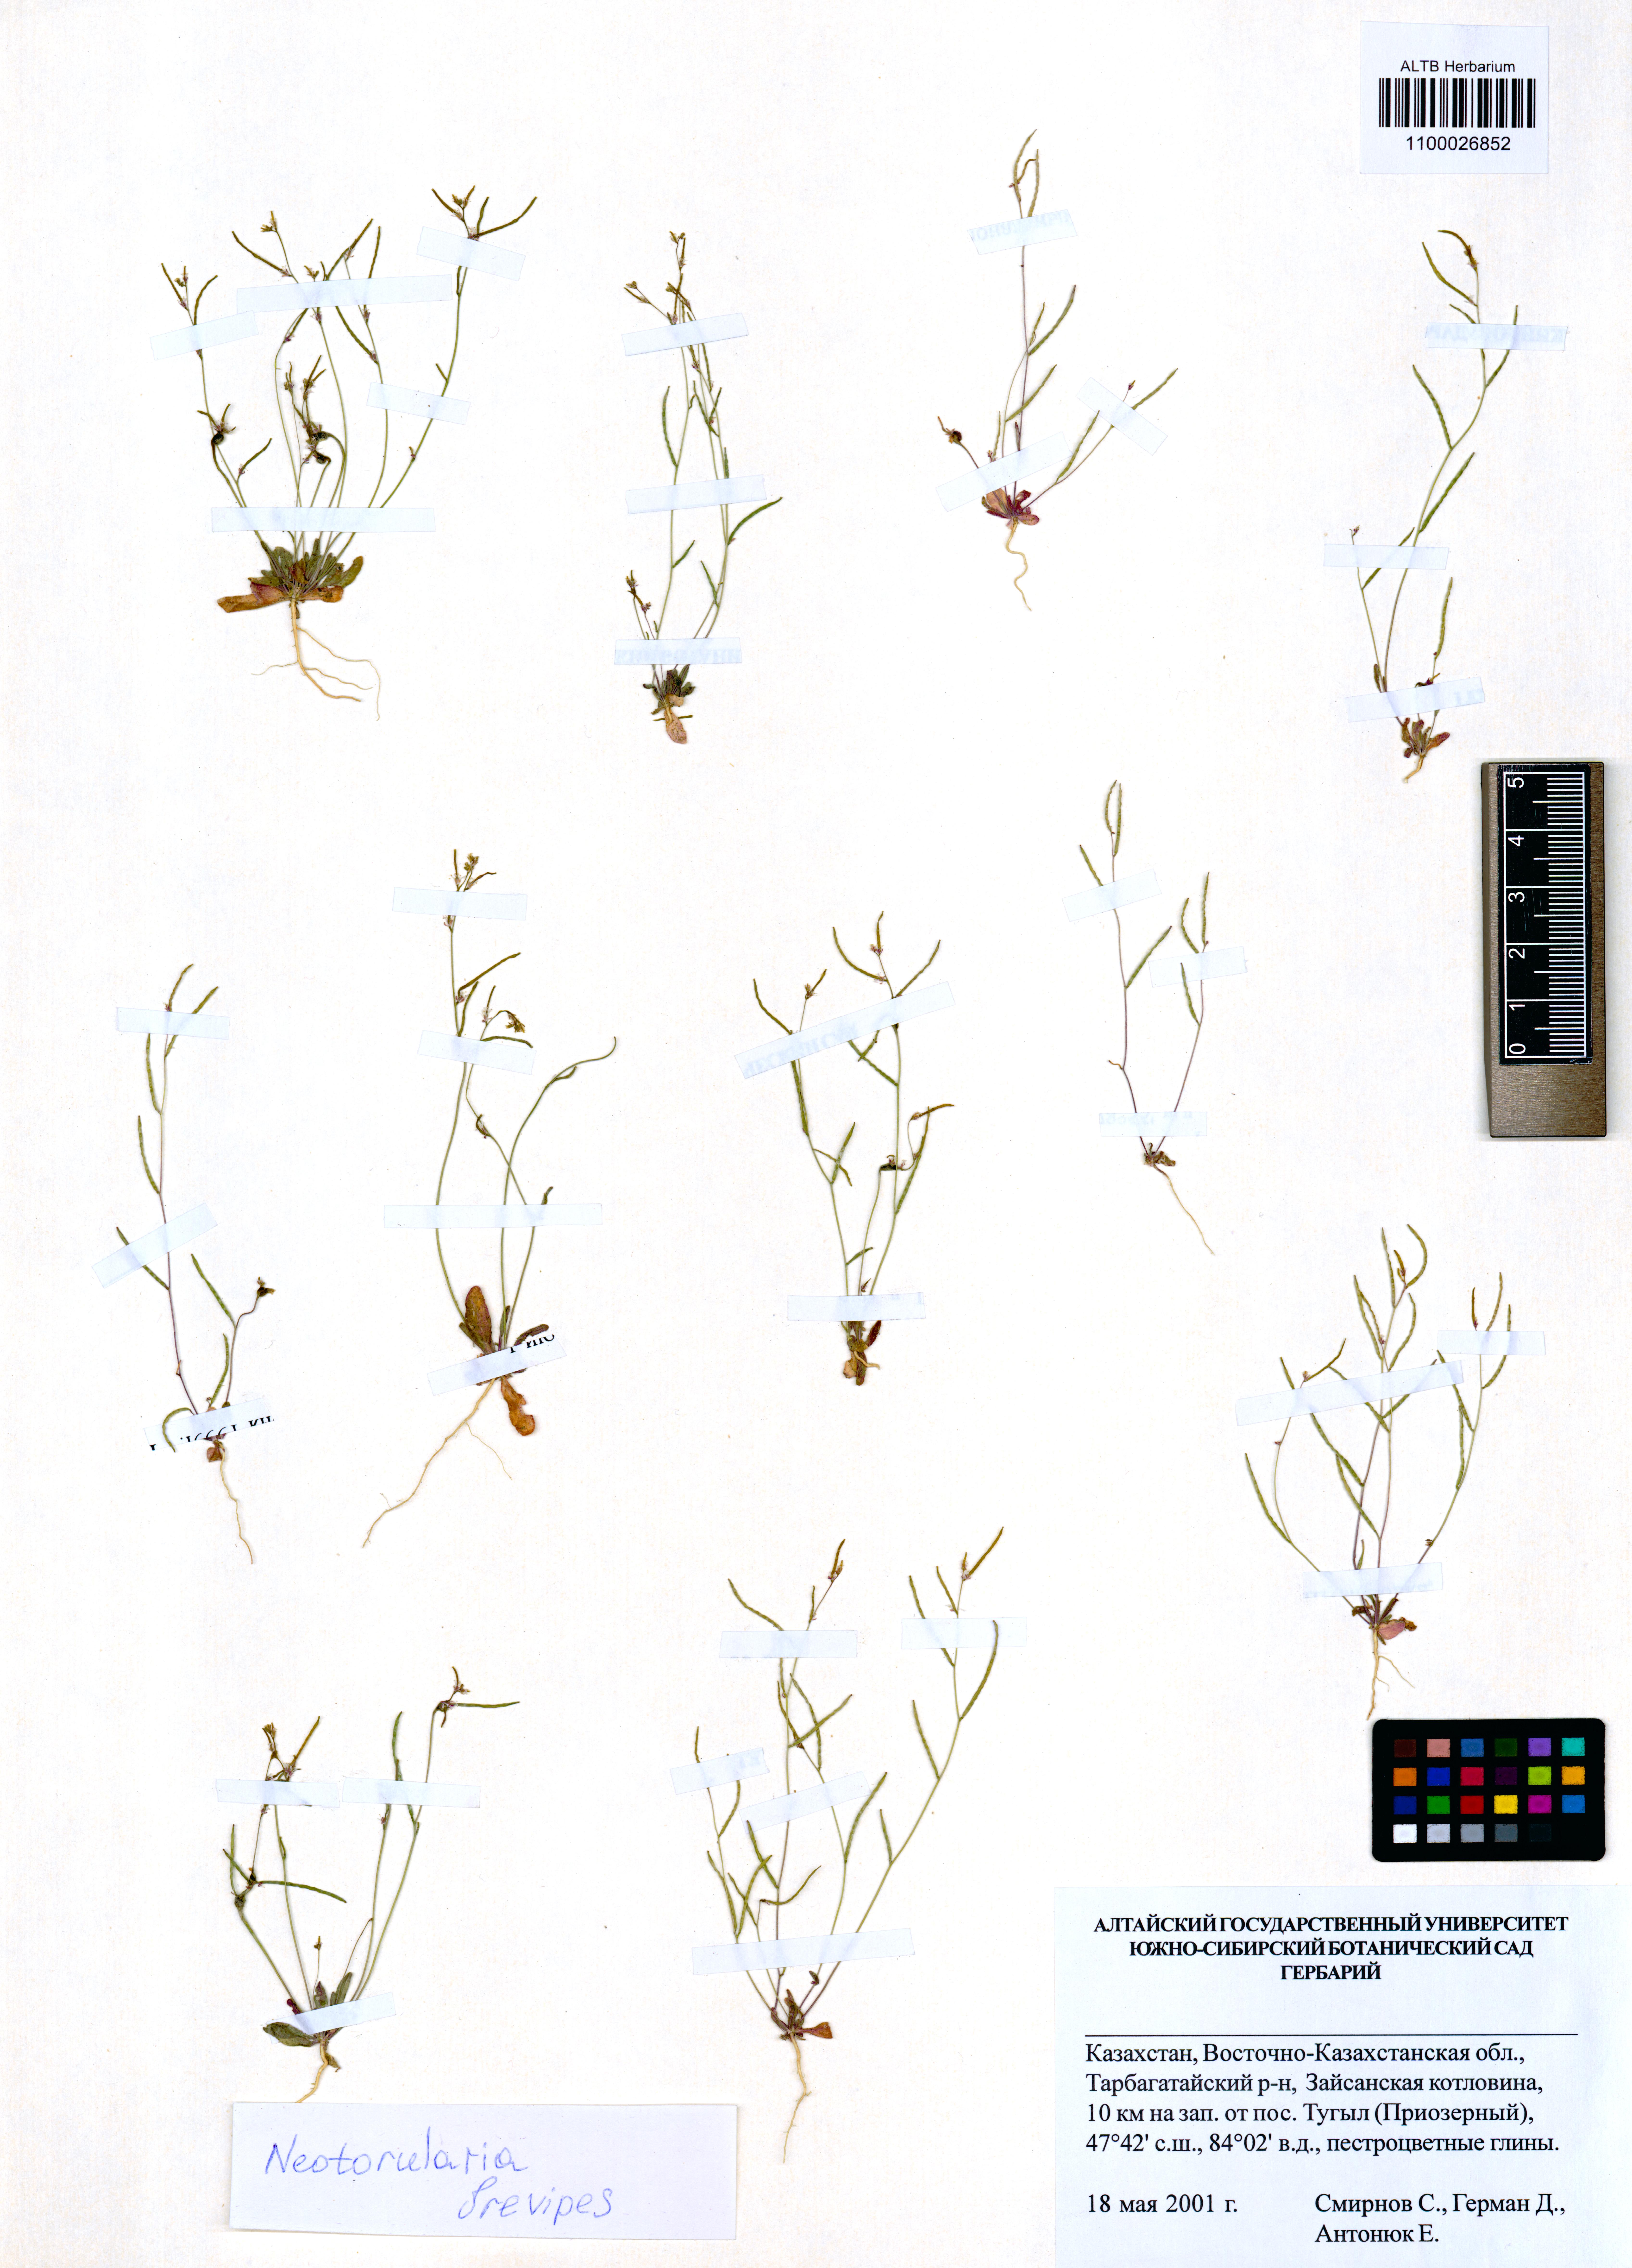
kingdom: Plantae
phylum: Tracheophyta
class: Magnoliopsida
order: Brassicales
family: Brassicaceae
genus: Neotorularia
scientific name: Neotorularia brevipes
